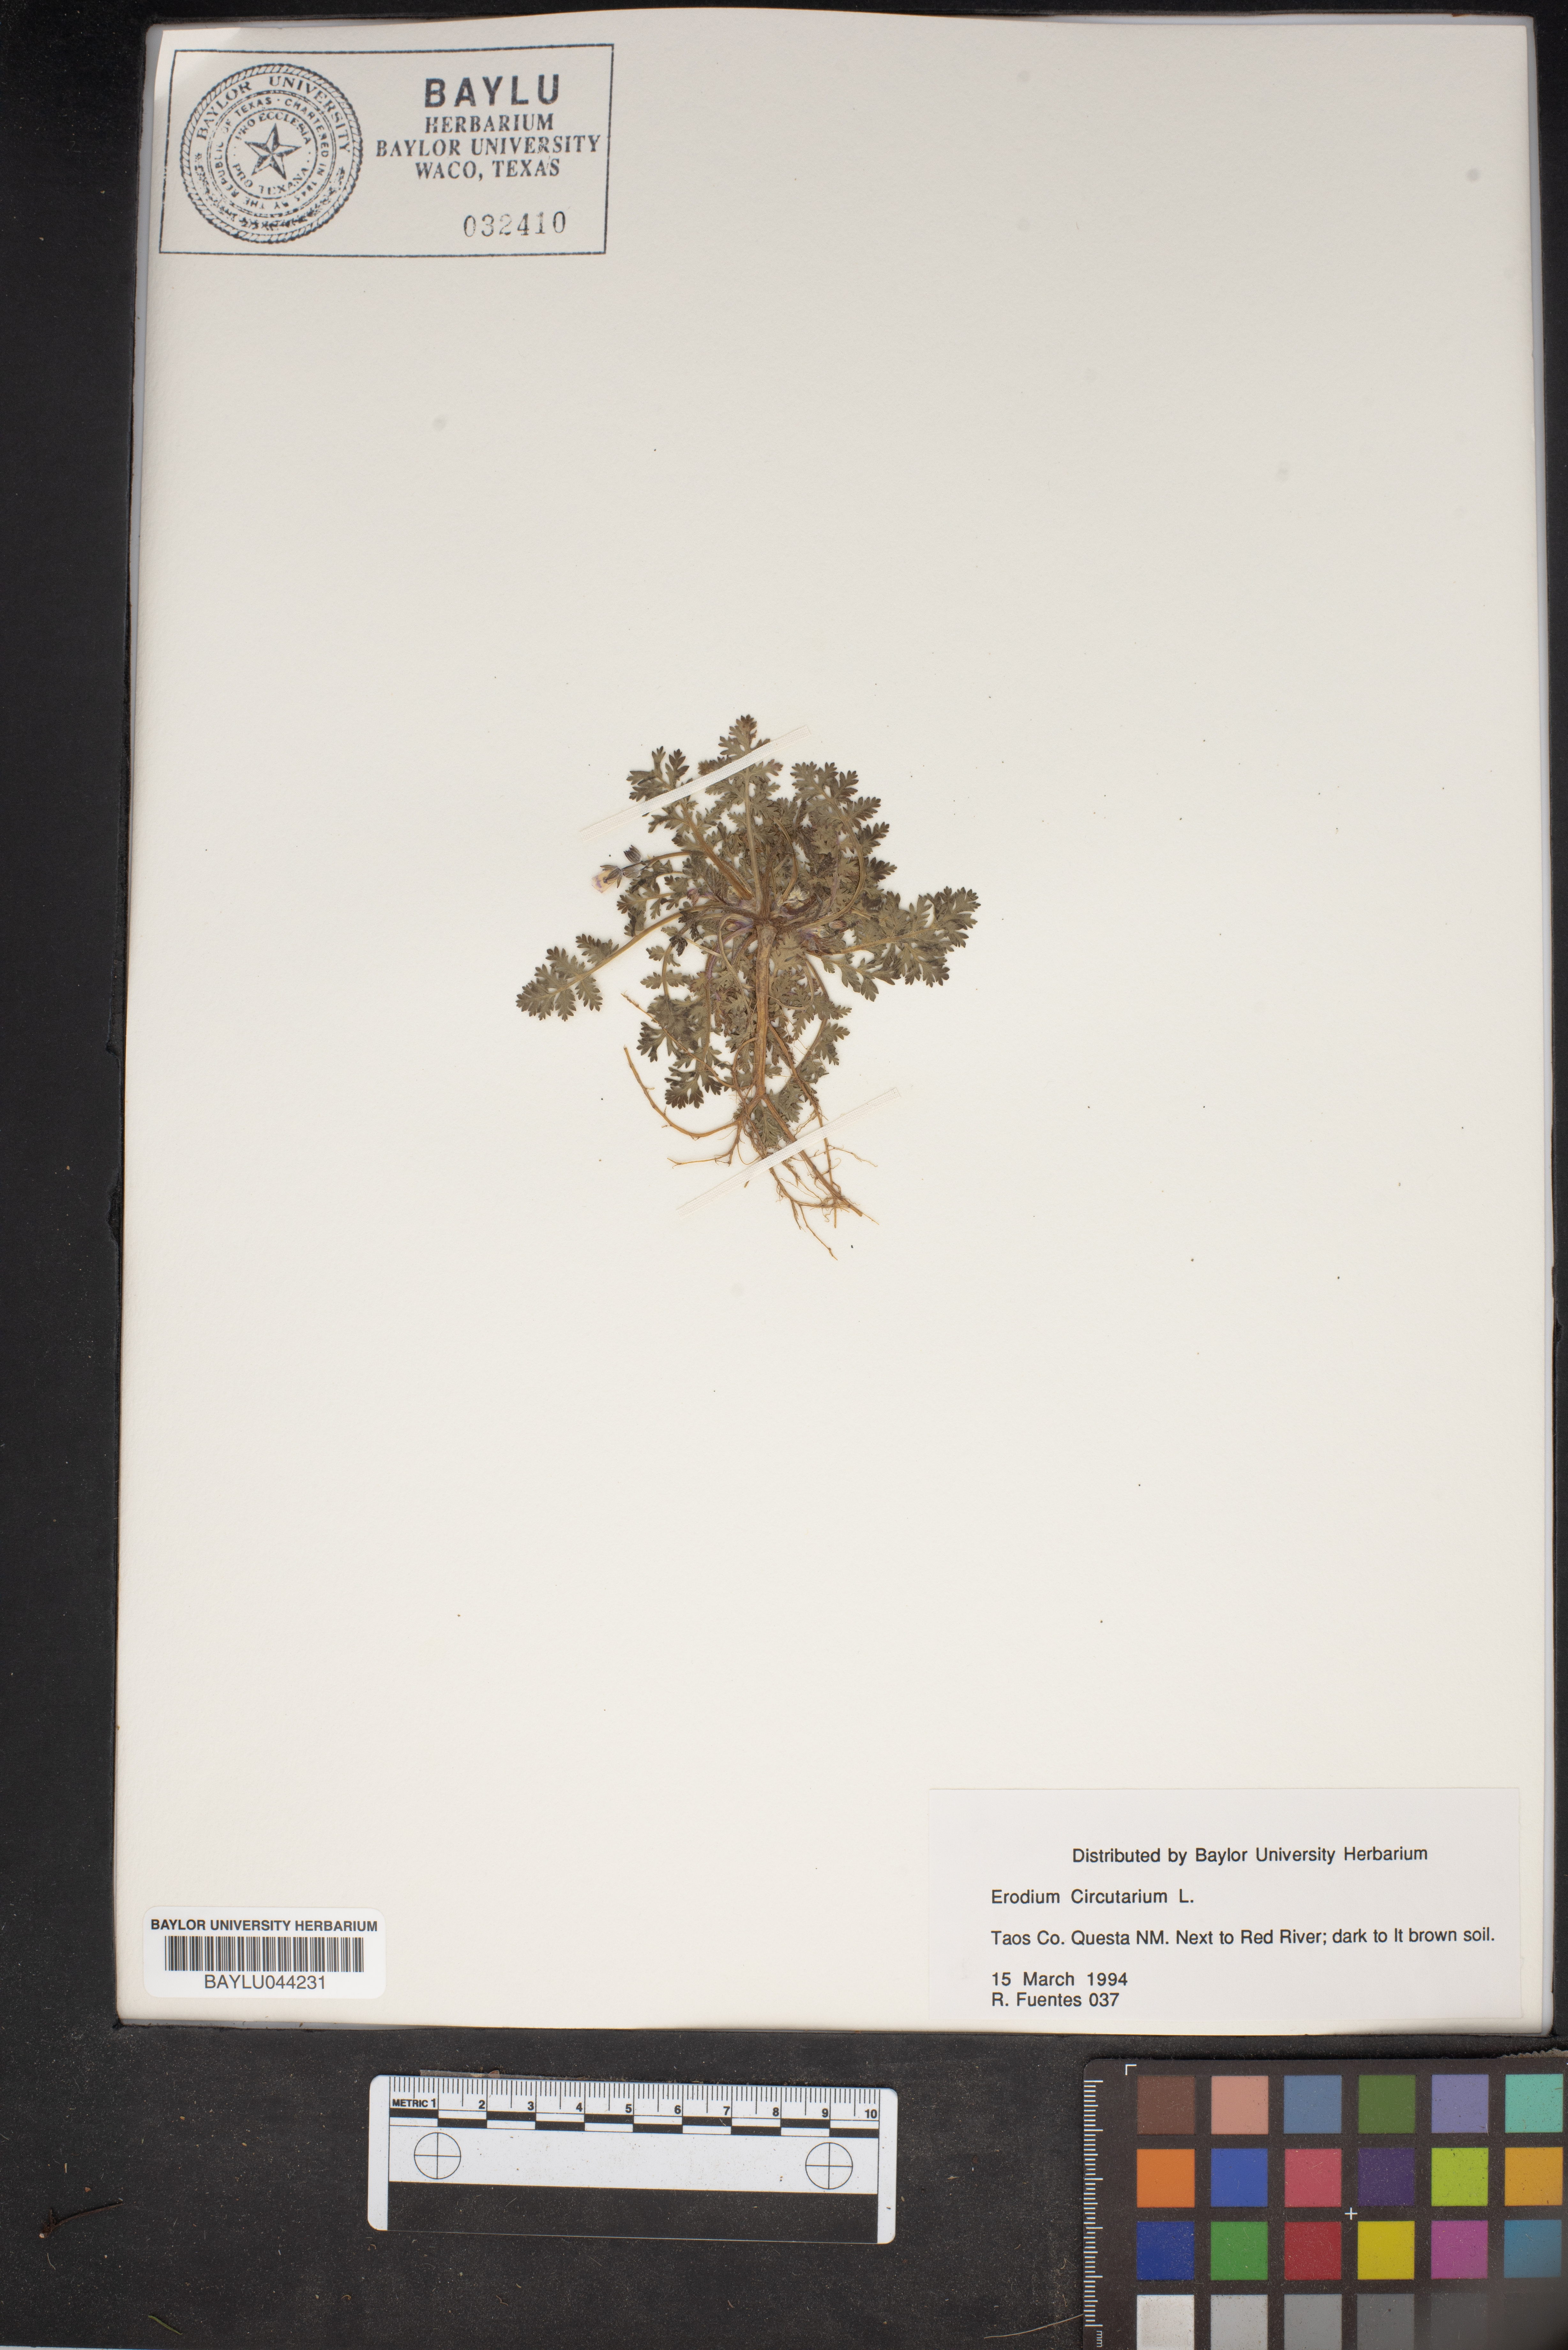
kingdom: Plantae
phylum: Tracheophyta
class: Magnoliopsida
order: Geraniales
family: Geraniaceae
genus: Erodium
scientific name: Erodium cicutarium
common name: Common stork's-bill
